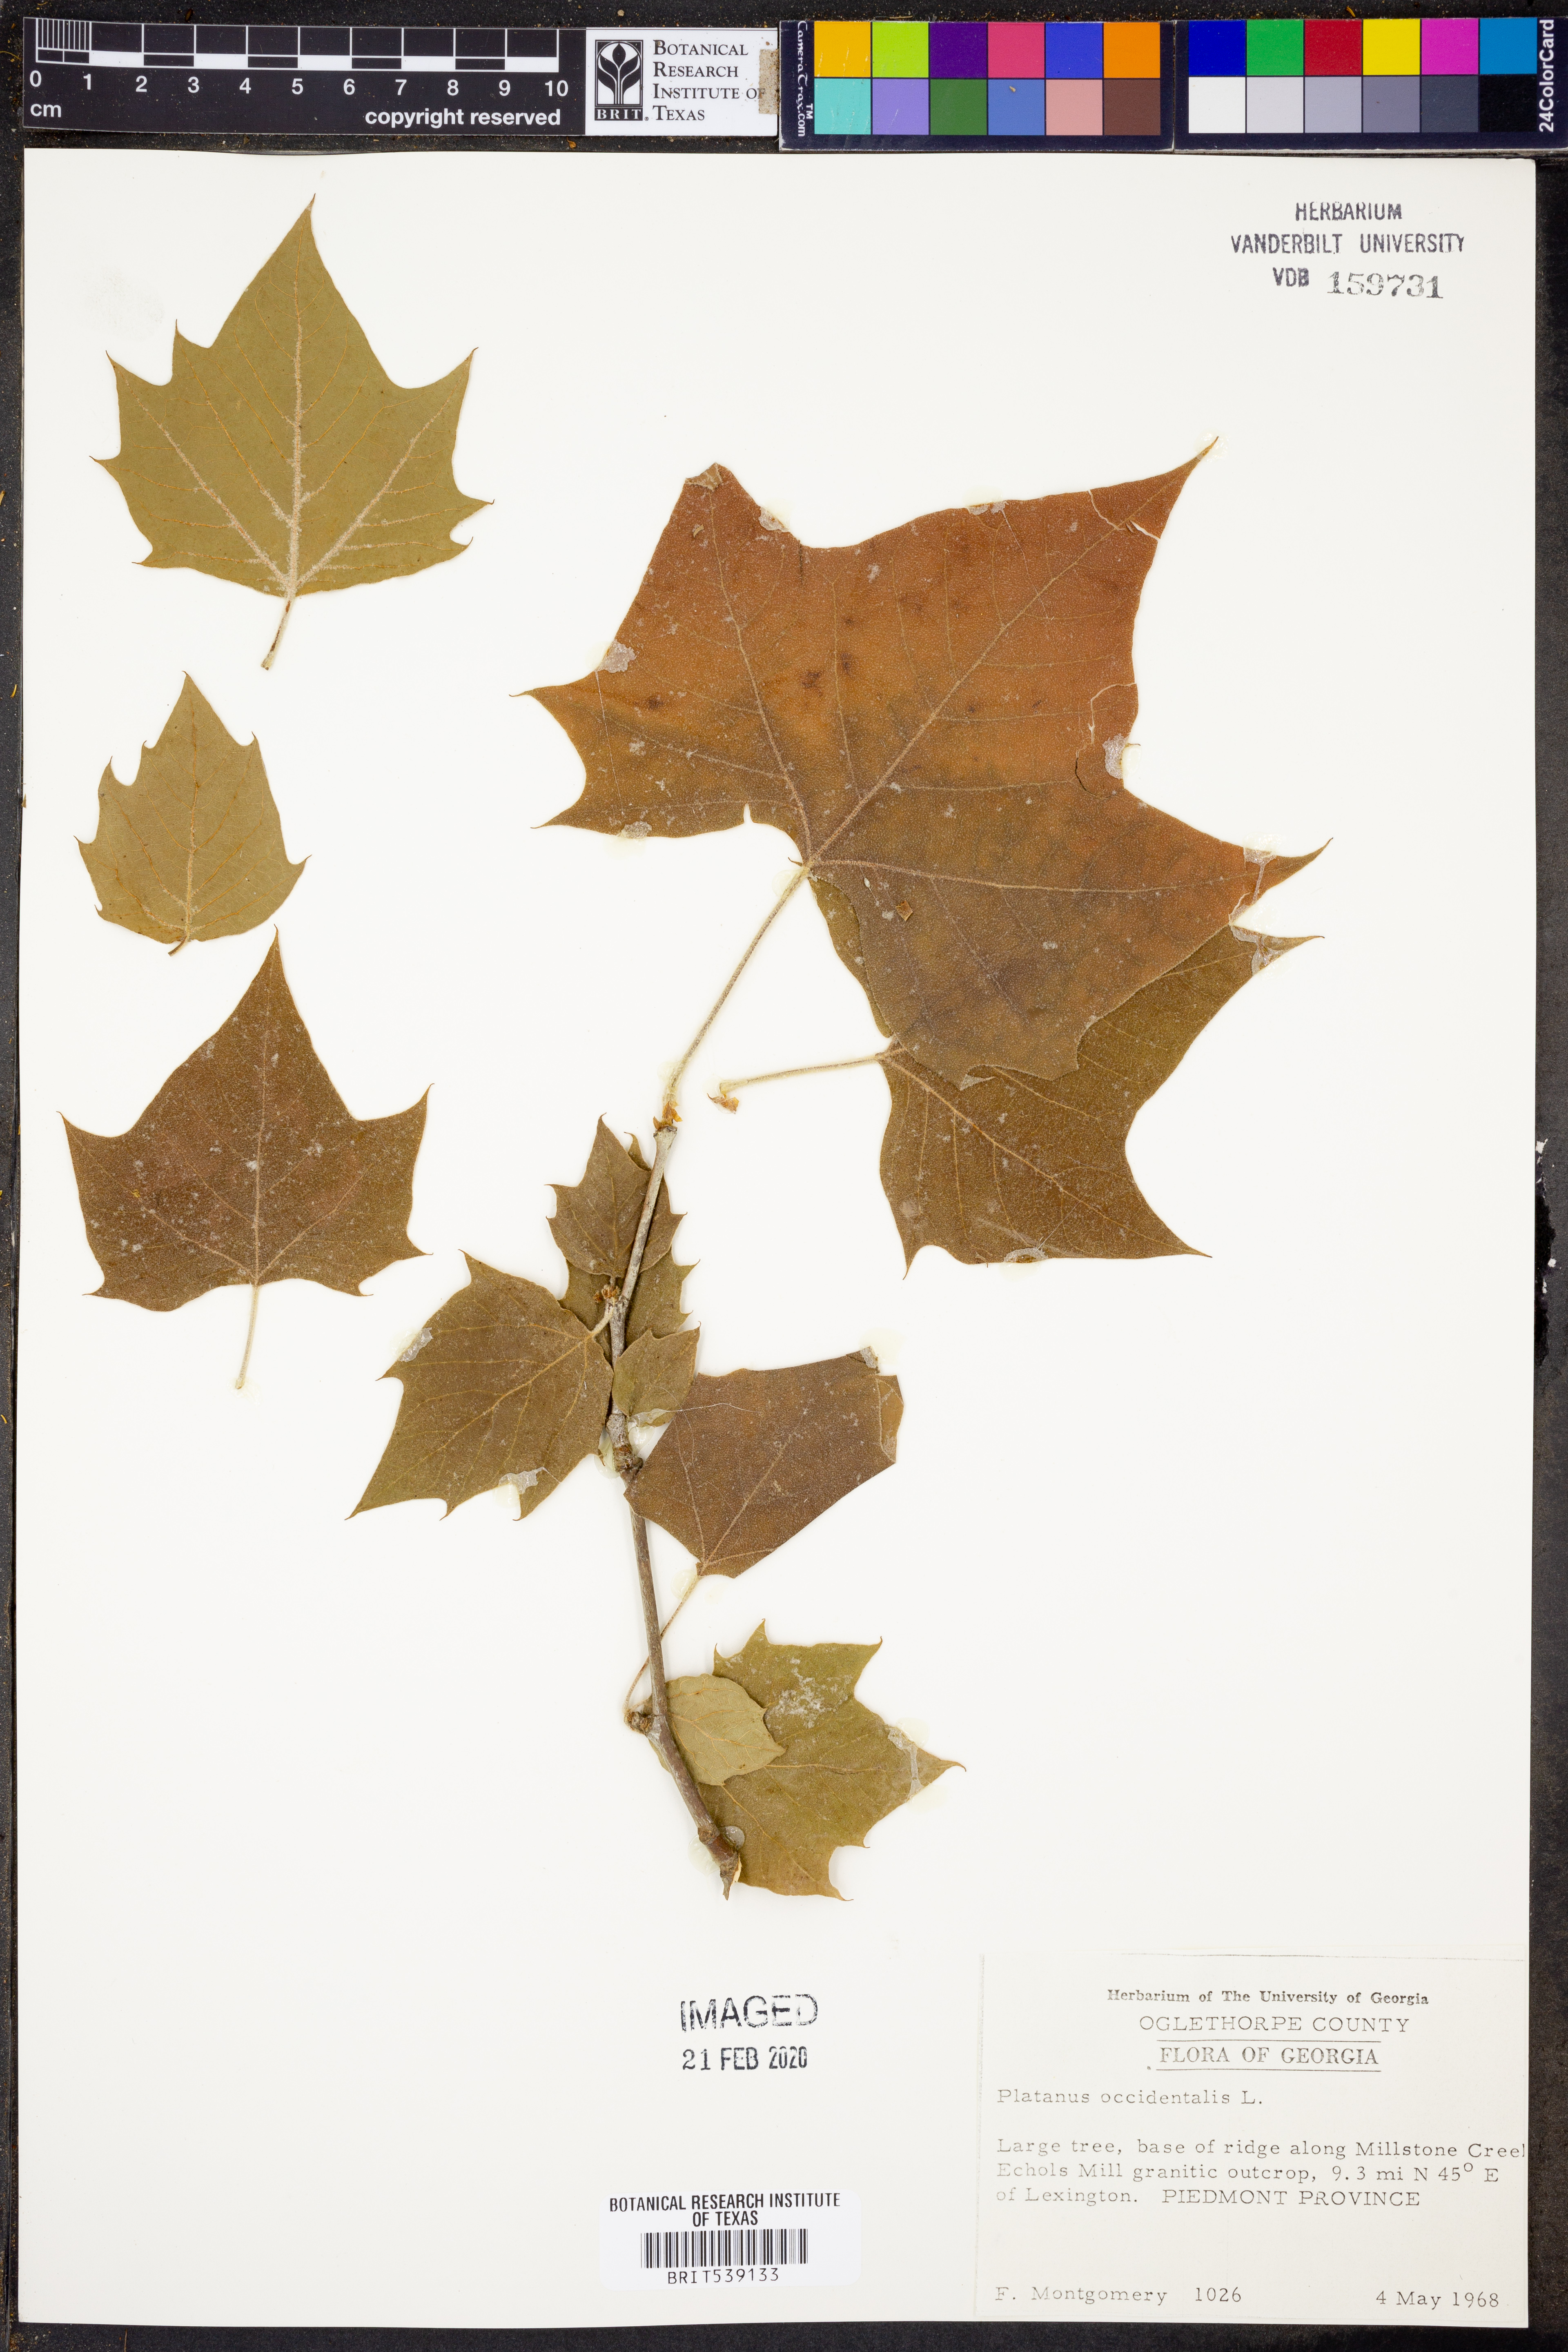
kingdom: Plantae
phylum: Tracheophyta
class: Magnoliopsida
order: Proteales
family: Platanaceae
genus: Platanus
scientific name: Platanus occidentalis
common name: American sycamore
